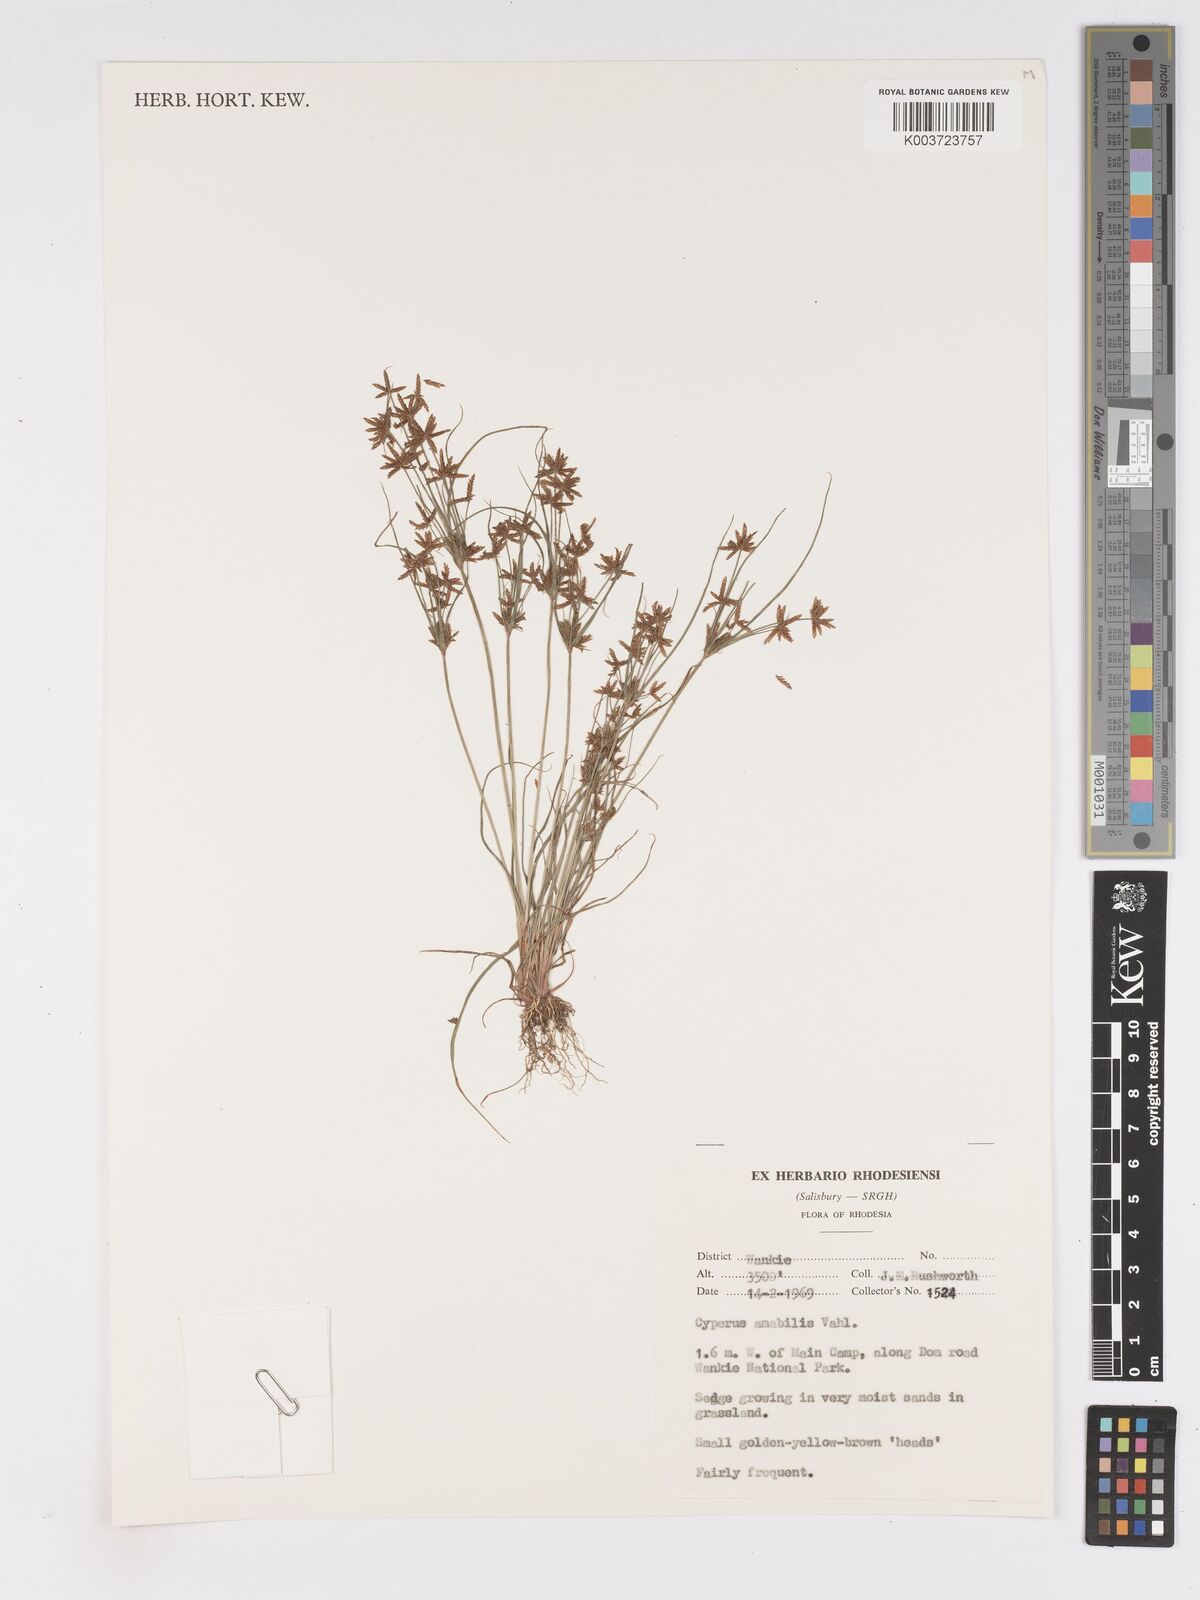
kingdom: Plantae
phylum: Tracheophyta
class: Liliopsida
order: Poales
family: Cyperaceae
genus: Cyperus
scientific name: Cyperus amabilis
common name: Foothill flat sedge
